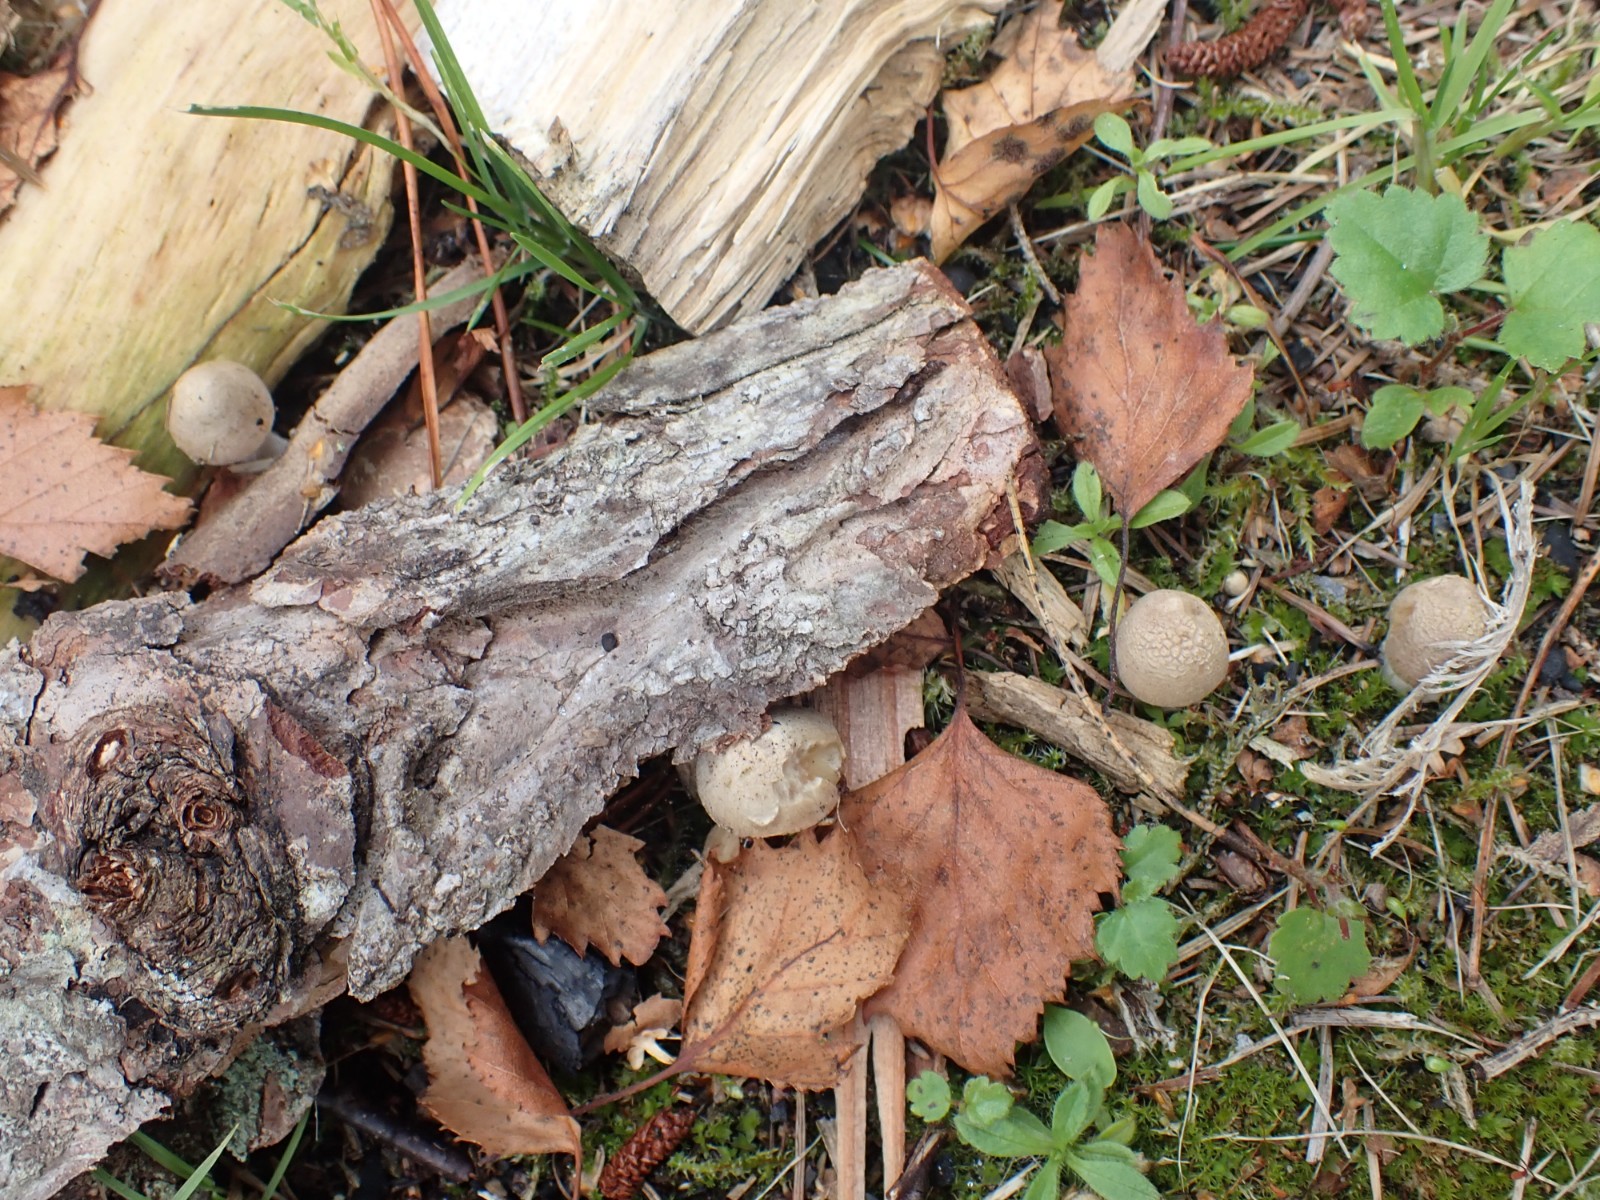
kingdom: Fungi
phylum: Basidiomycota
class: Agaricomycetes
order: Agaricales
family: Inocybaceae
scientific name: Inocybaceae
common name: trævlhatfamilien
